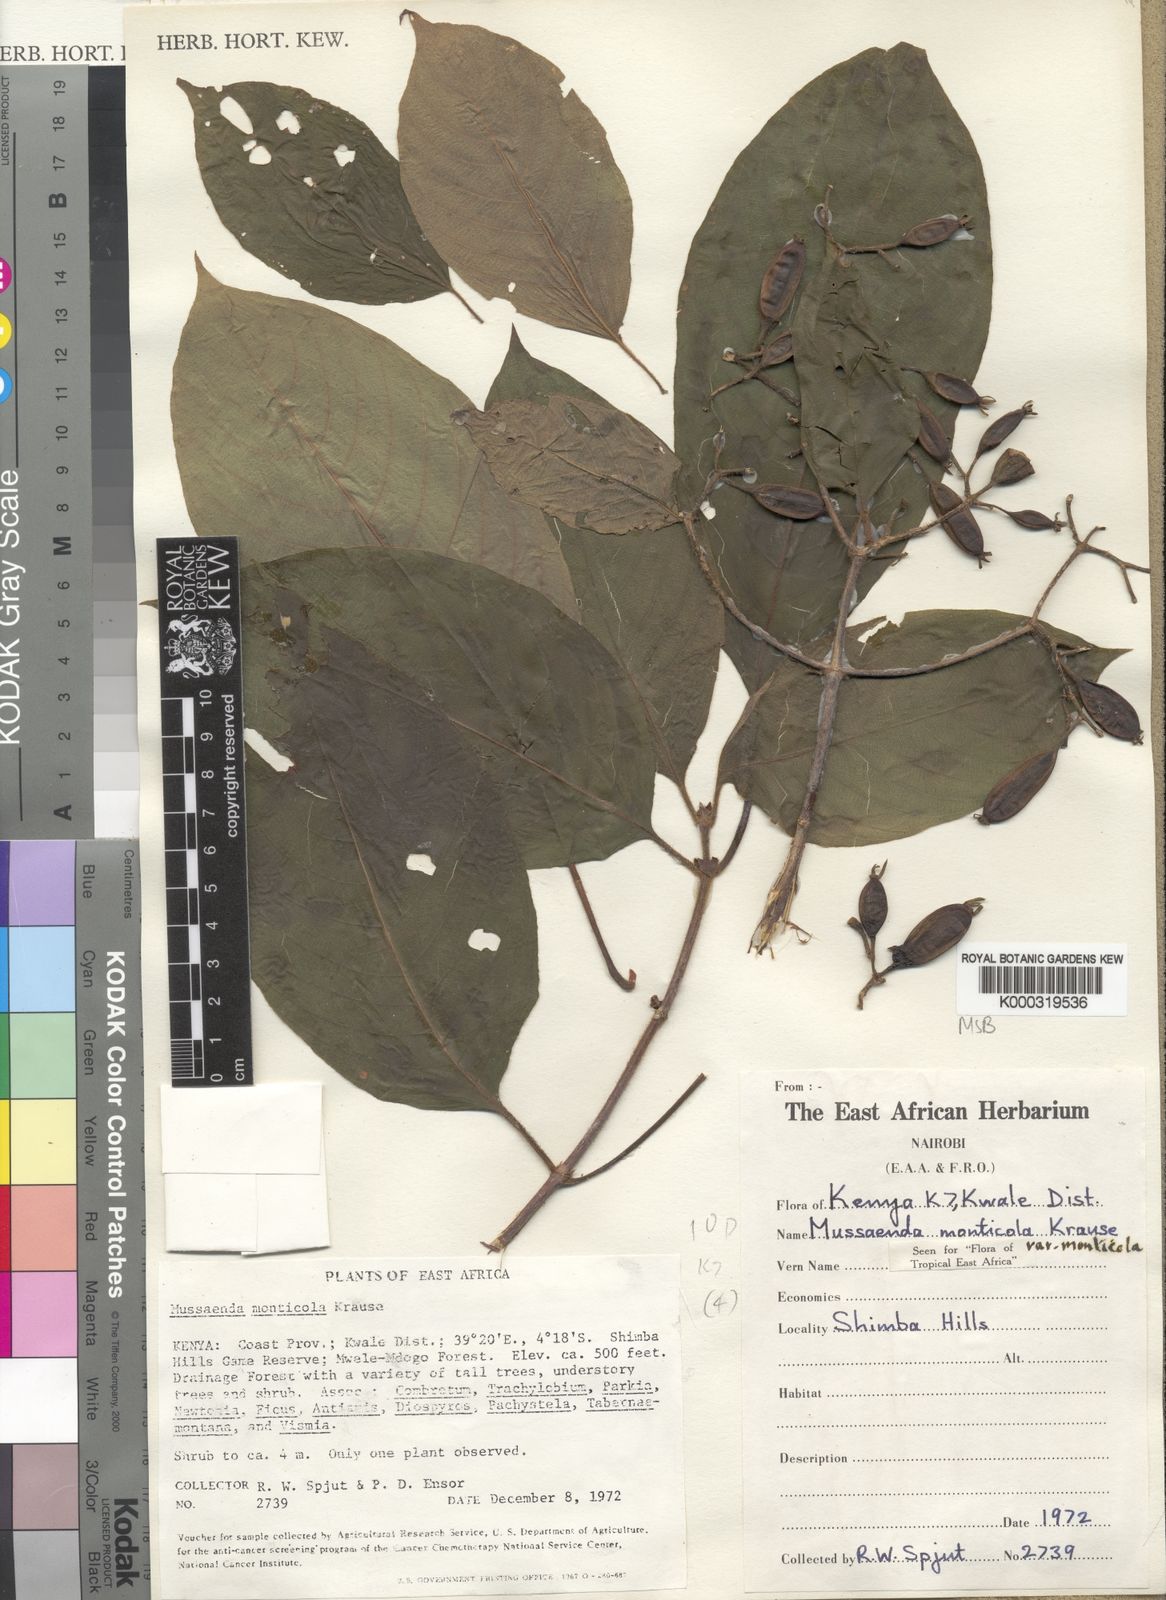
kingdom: Plantae
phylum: Tracheophyta
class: Magnoliopsida
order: Gentianales
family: Rubiaceae
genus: Mussaenda
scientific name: Mussaenda monticola
